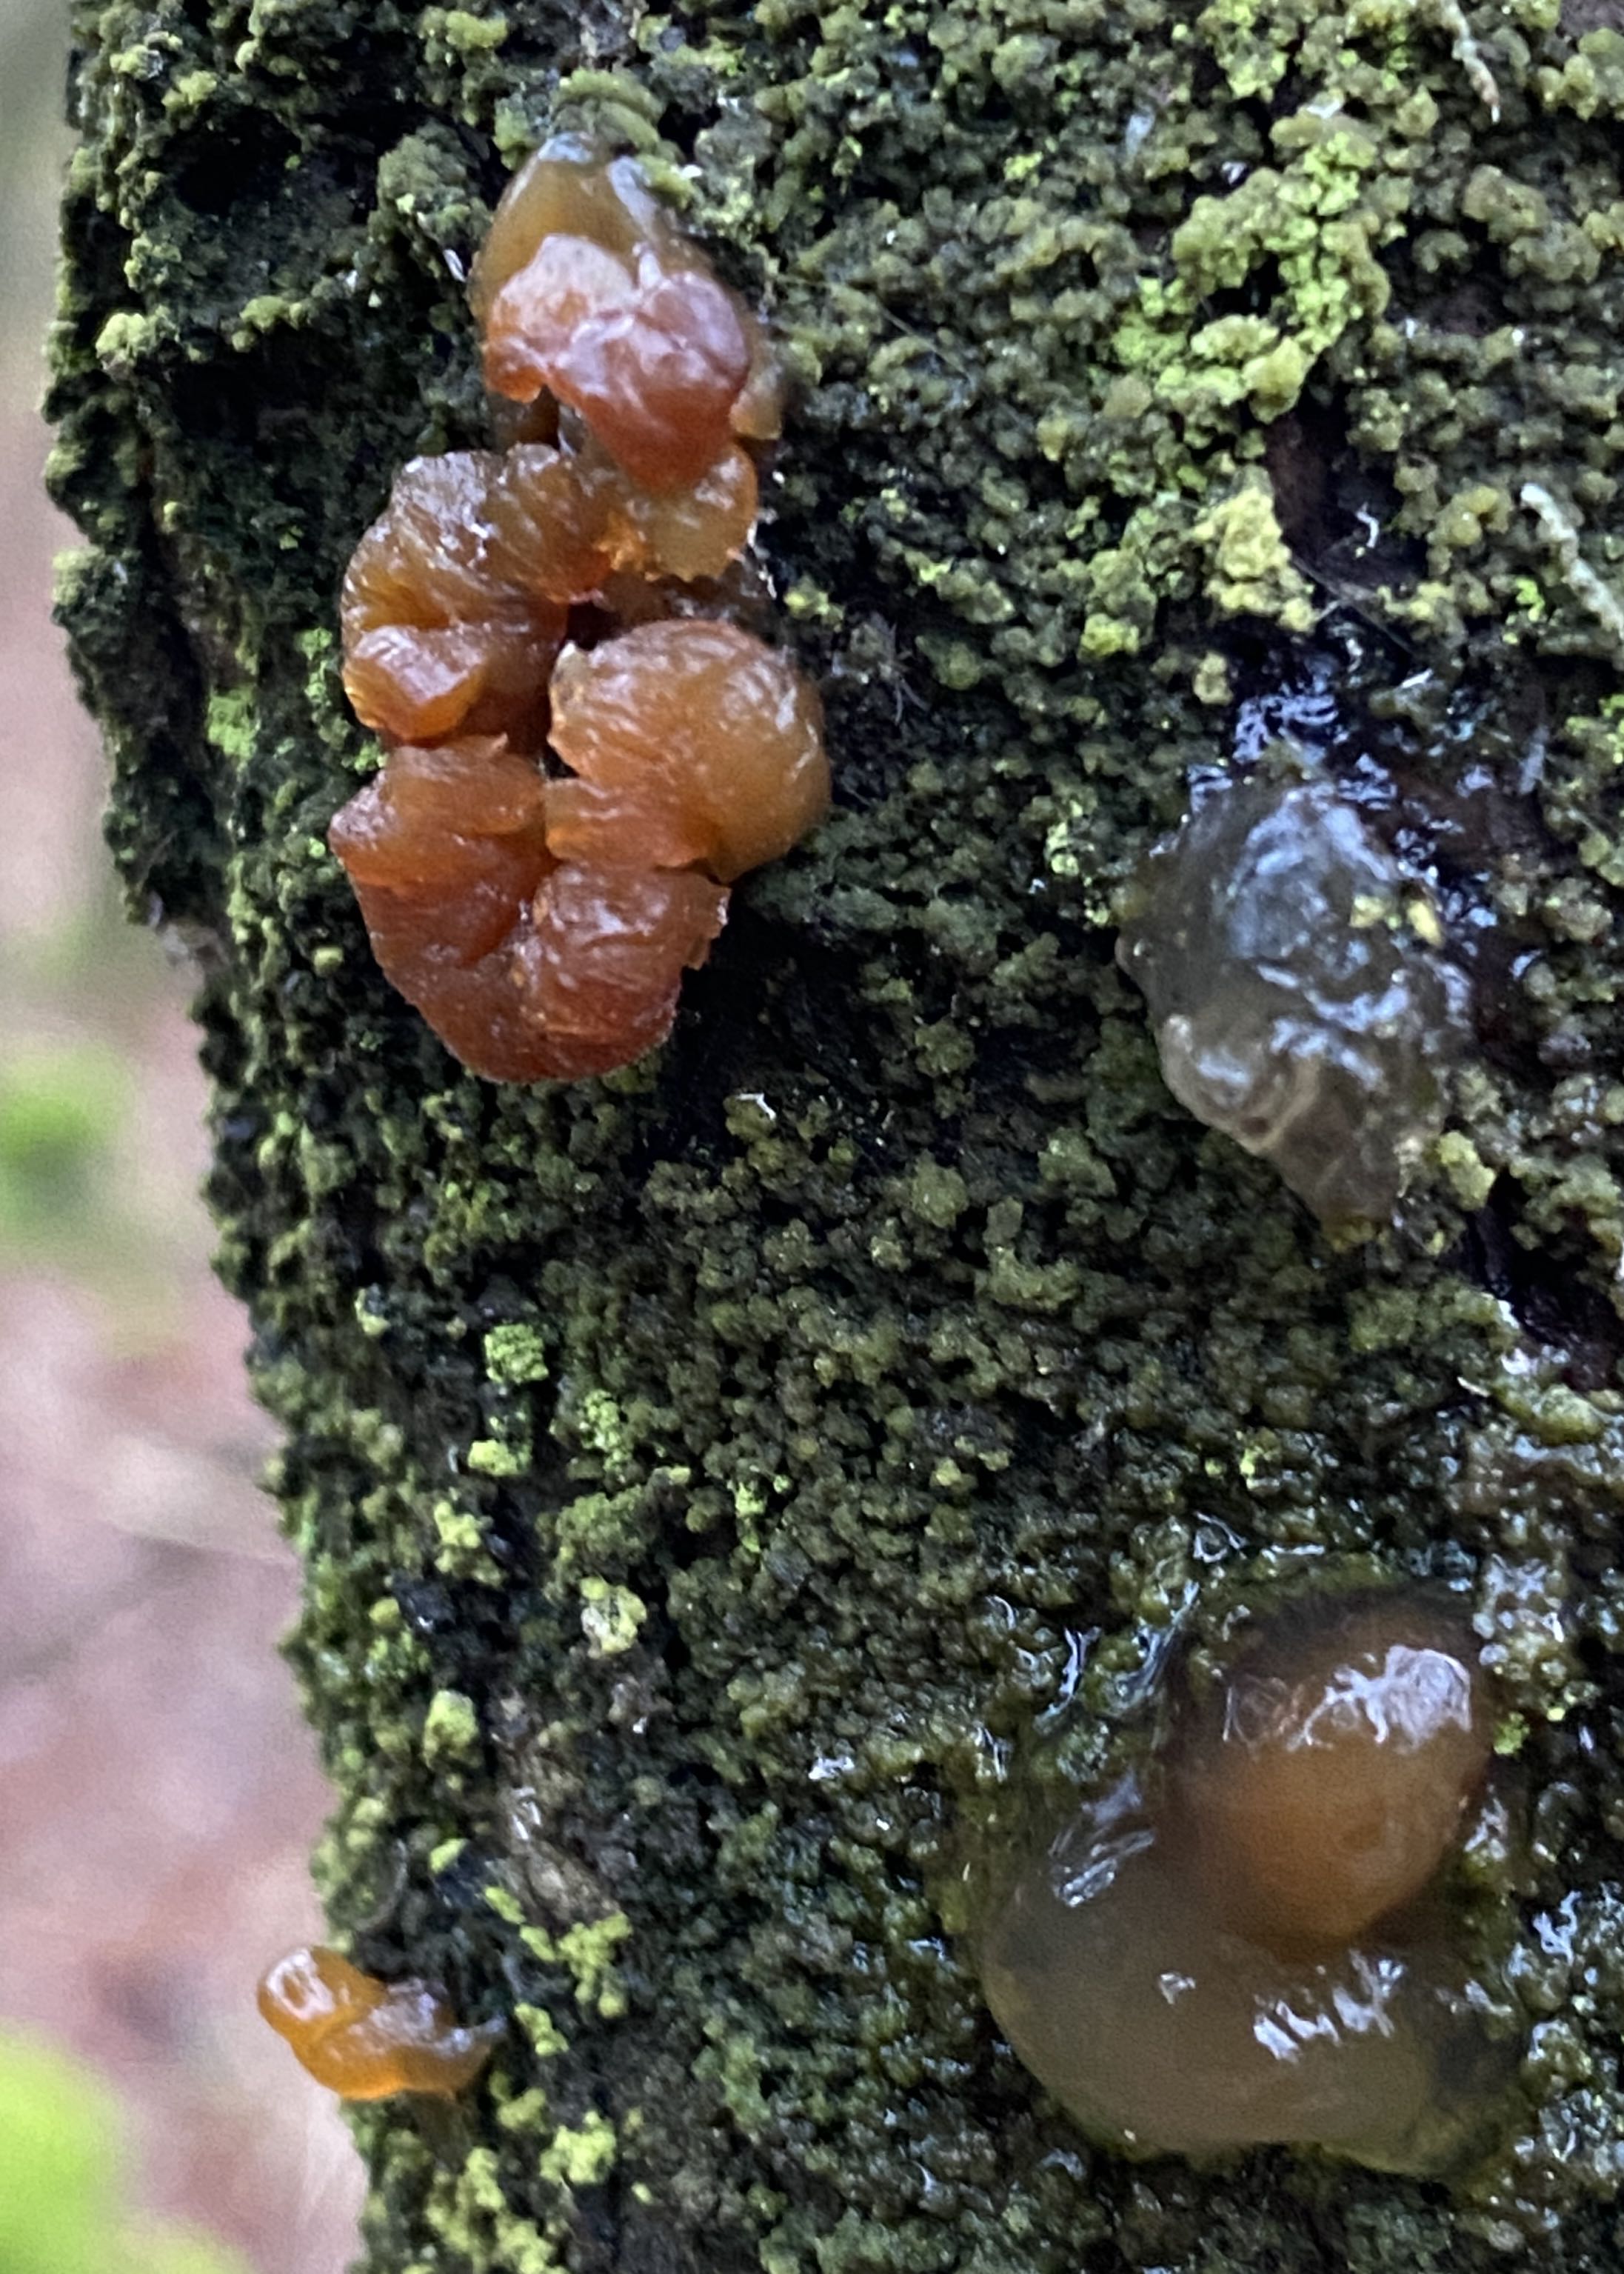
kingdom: Fungi
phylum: Basidiomycota
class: Agaricomycetes
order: Auriculariales
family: Hyaloriaceae
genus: Myxarium
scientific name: Myxarium
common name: bævretop
